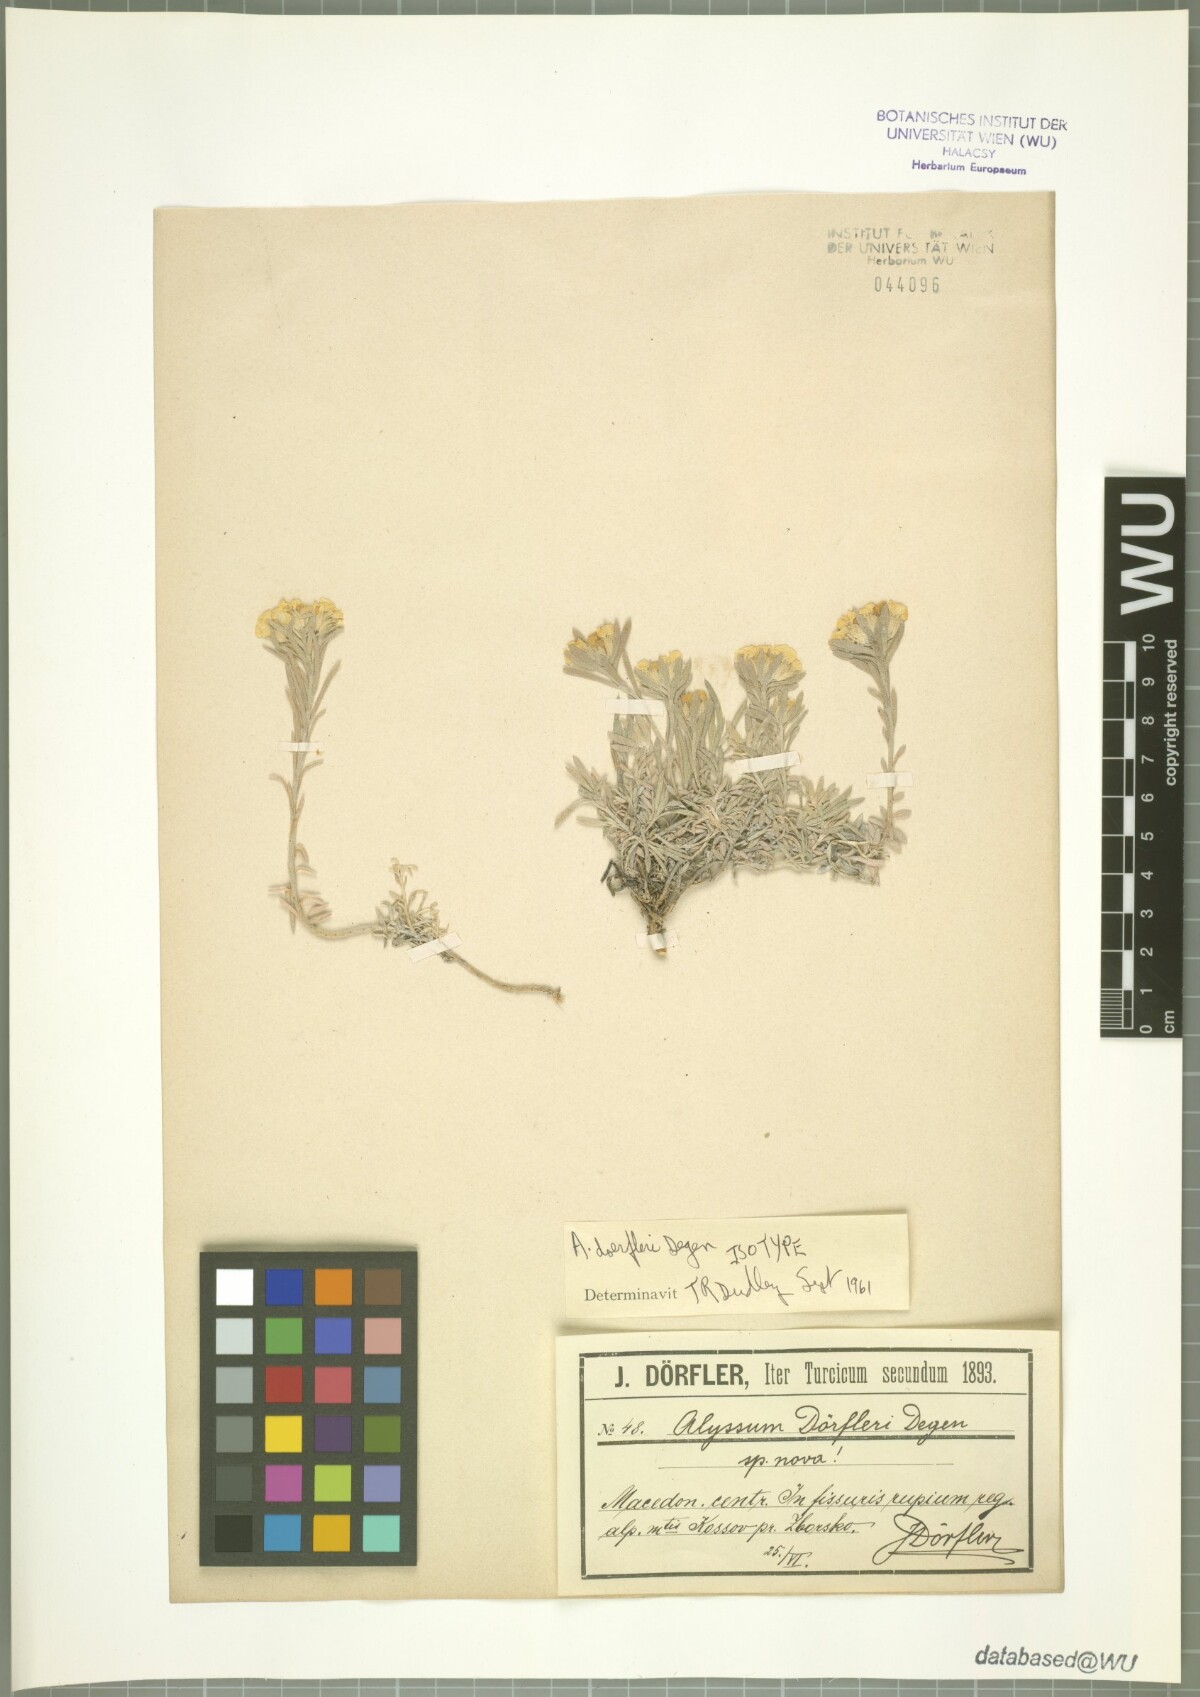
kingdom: Plantae
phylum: Tracheophyta
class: Magnoliopsida
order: Brassicales
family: Brassicaceae
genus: Alyssum
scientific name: Alyssum doerfleri
